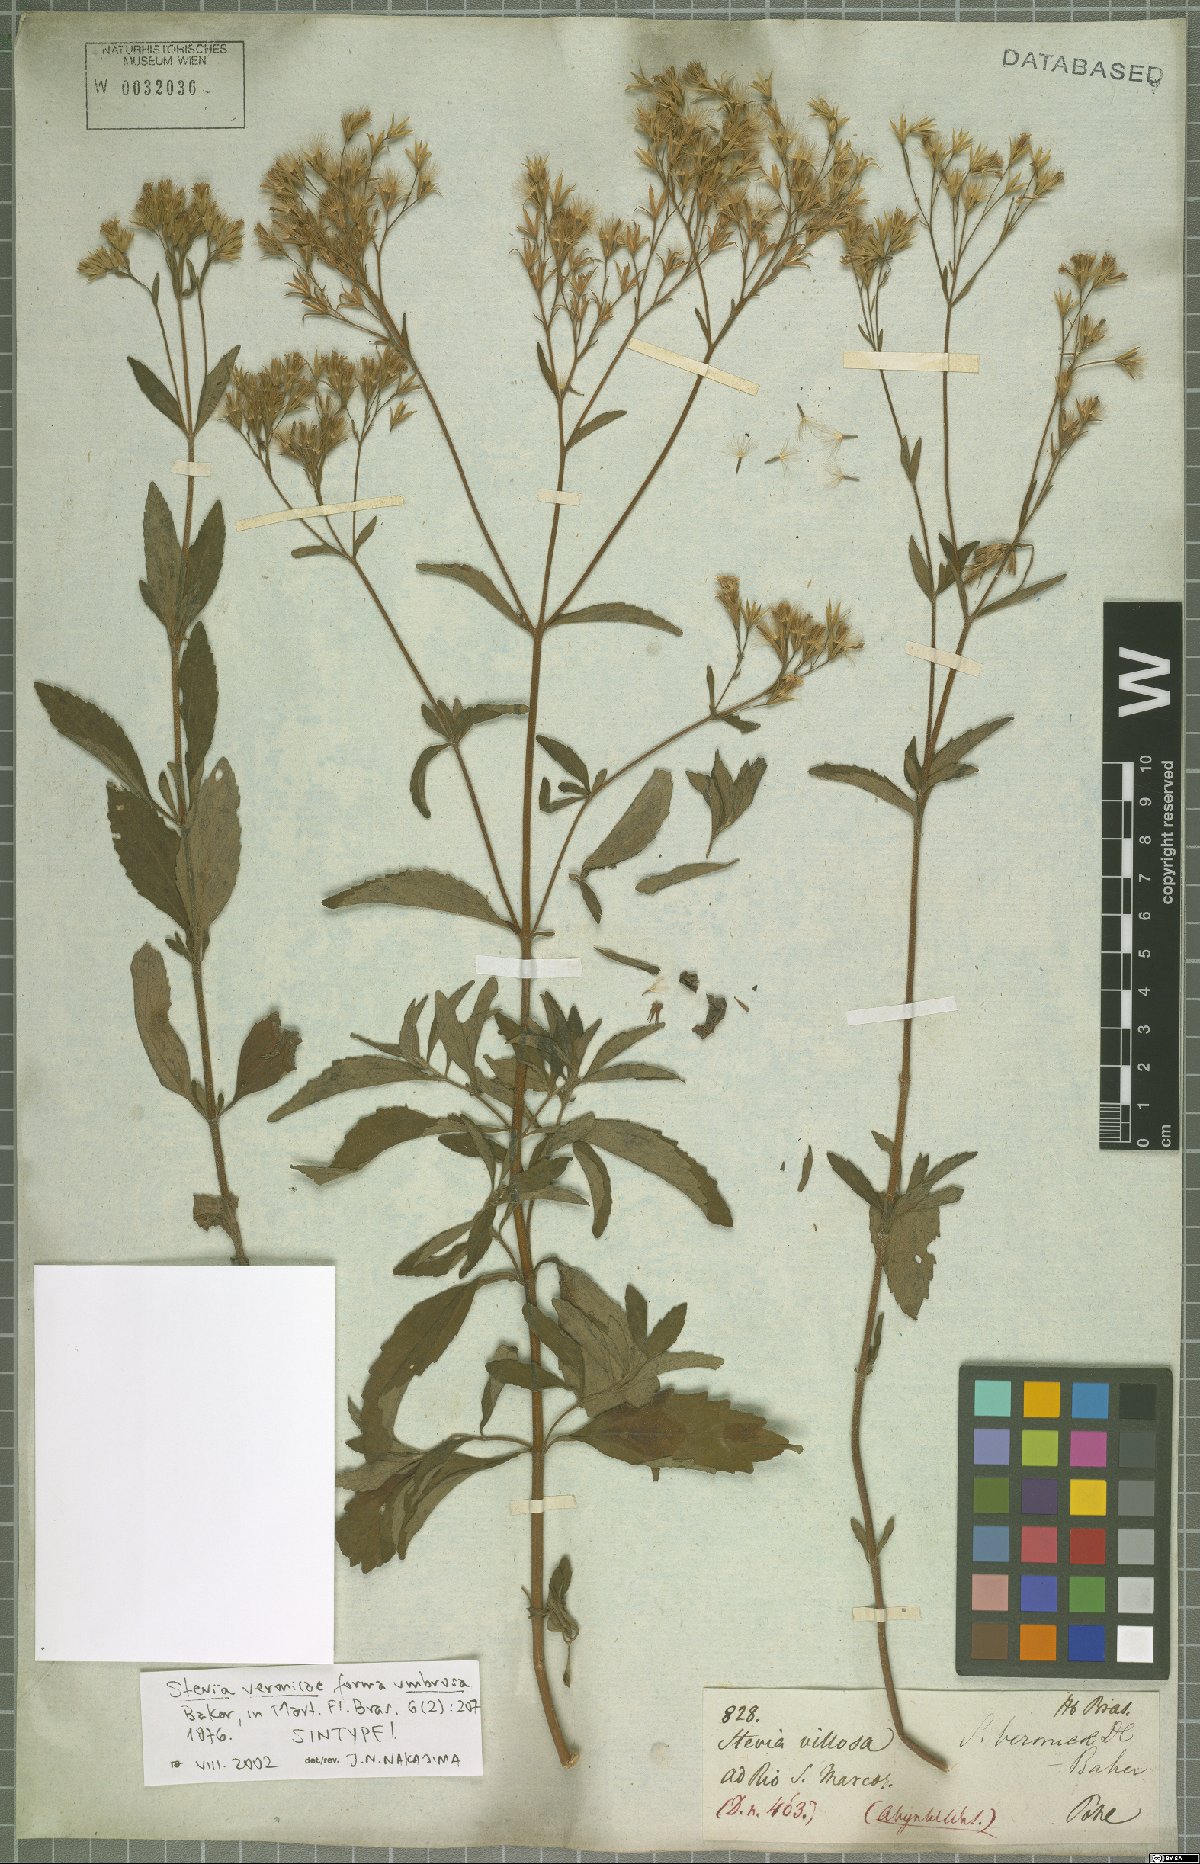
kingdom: Plantae
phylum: Tracheophyta
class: Magnoliopsida
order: Asterales
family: Asteraceae
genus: Stevia
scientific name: Stevia tenuis
